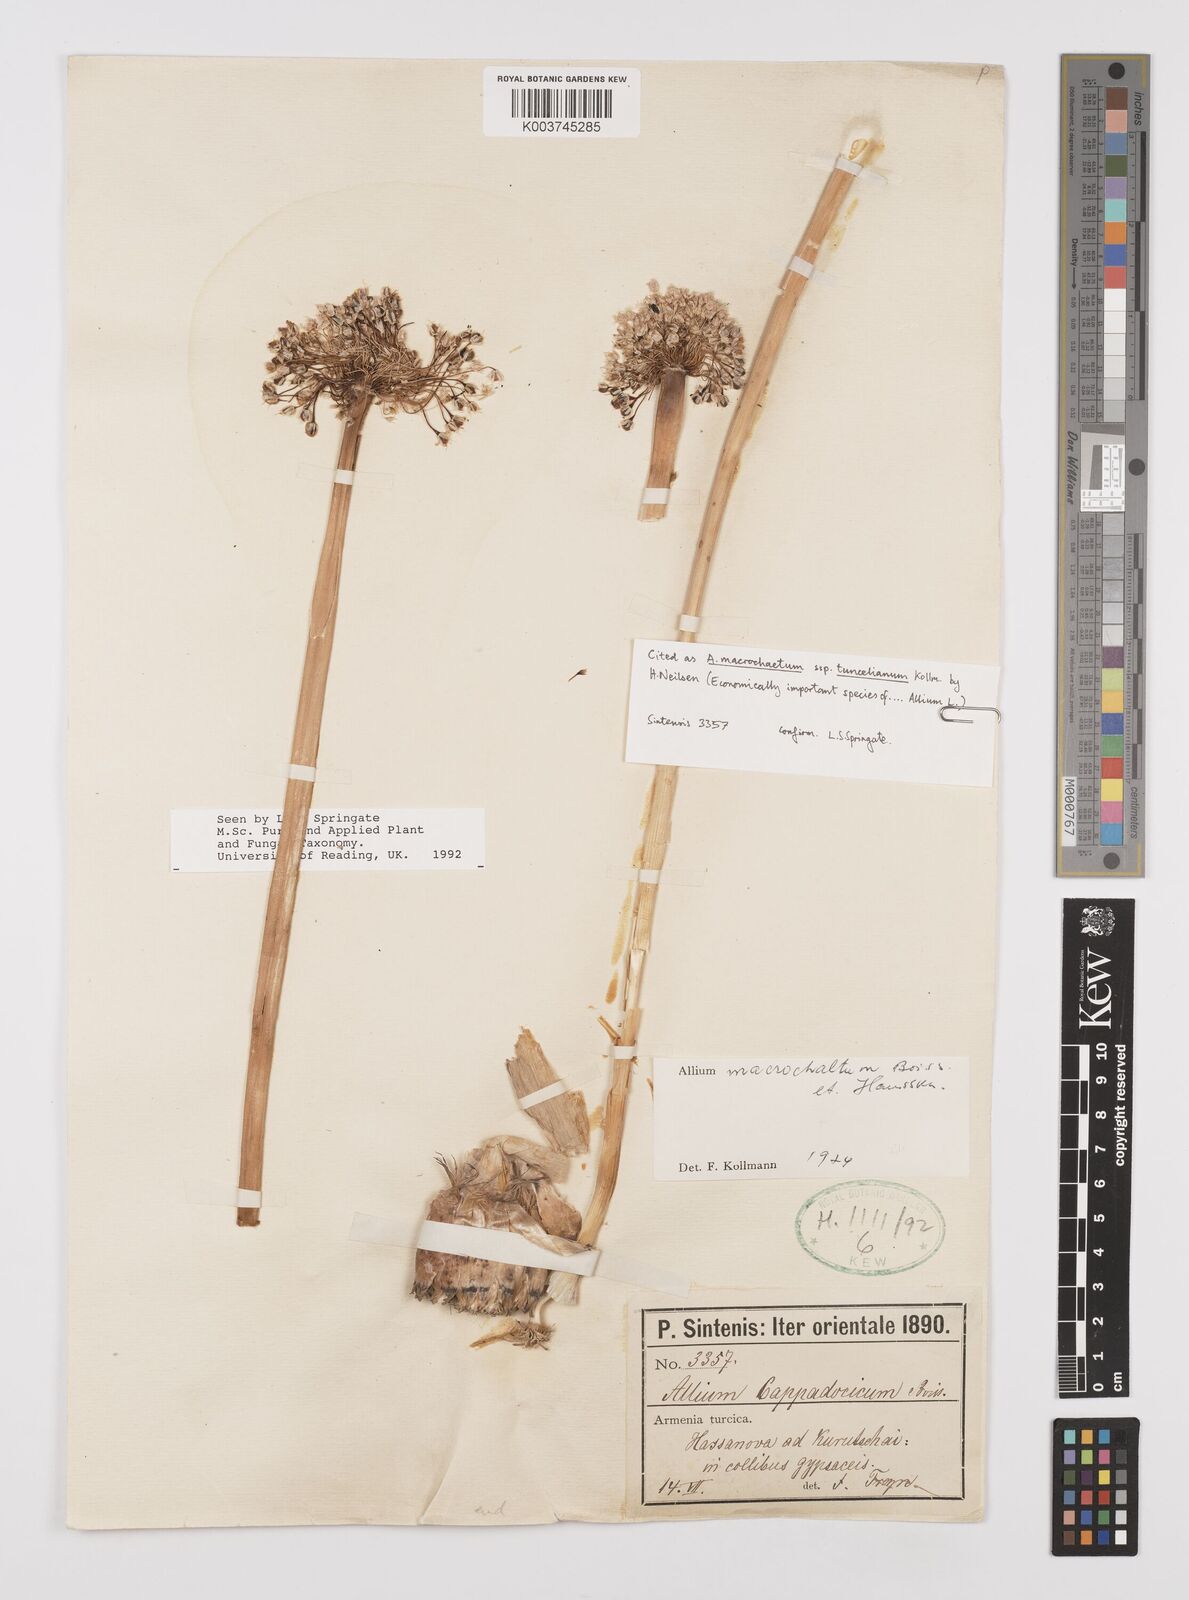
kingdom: Plantae
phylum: Tracheophyta
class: Liliopsida
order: Asparagales
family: Amaryllidaceae
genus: Allium
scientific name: Allium tuncelianum
